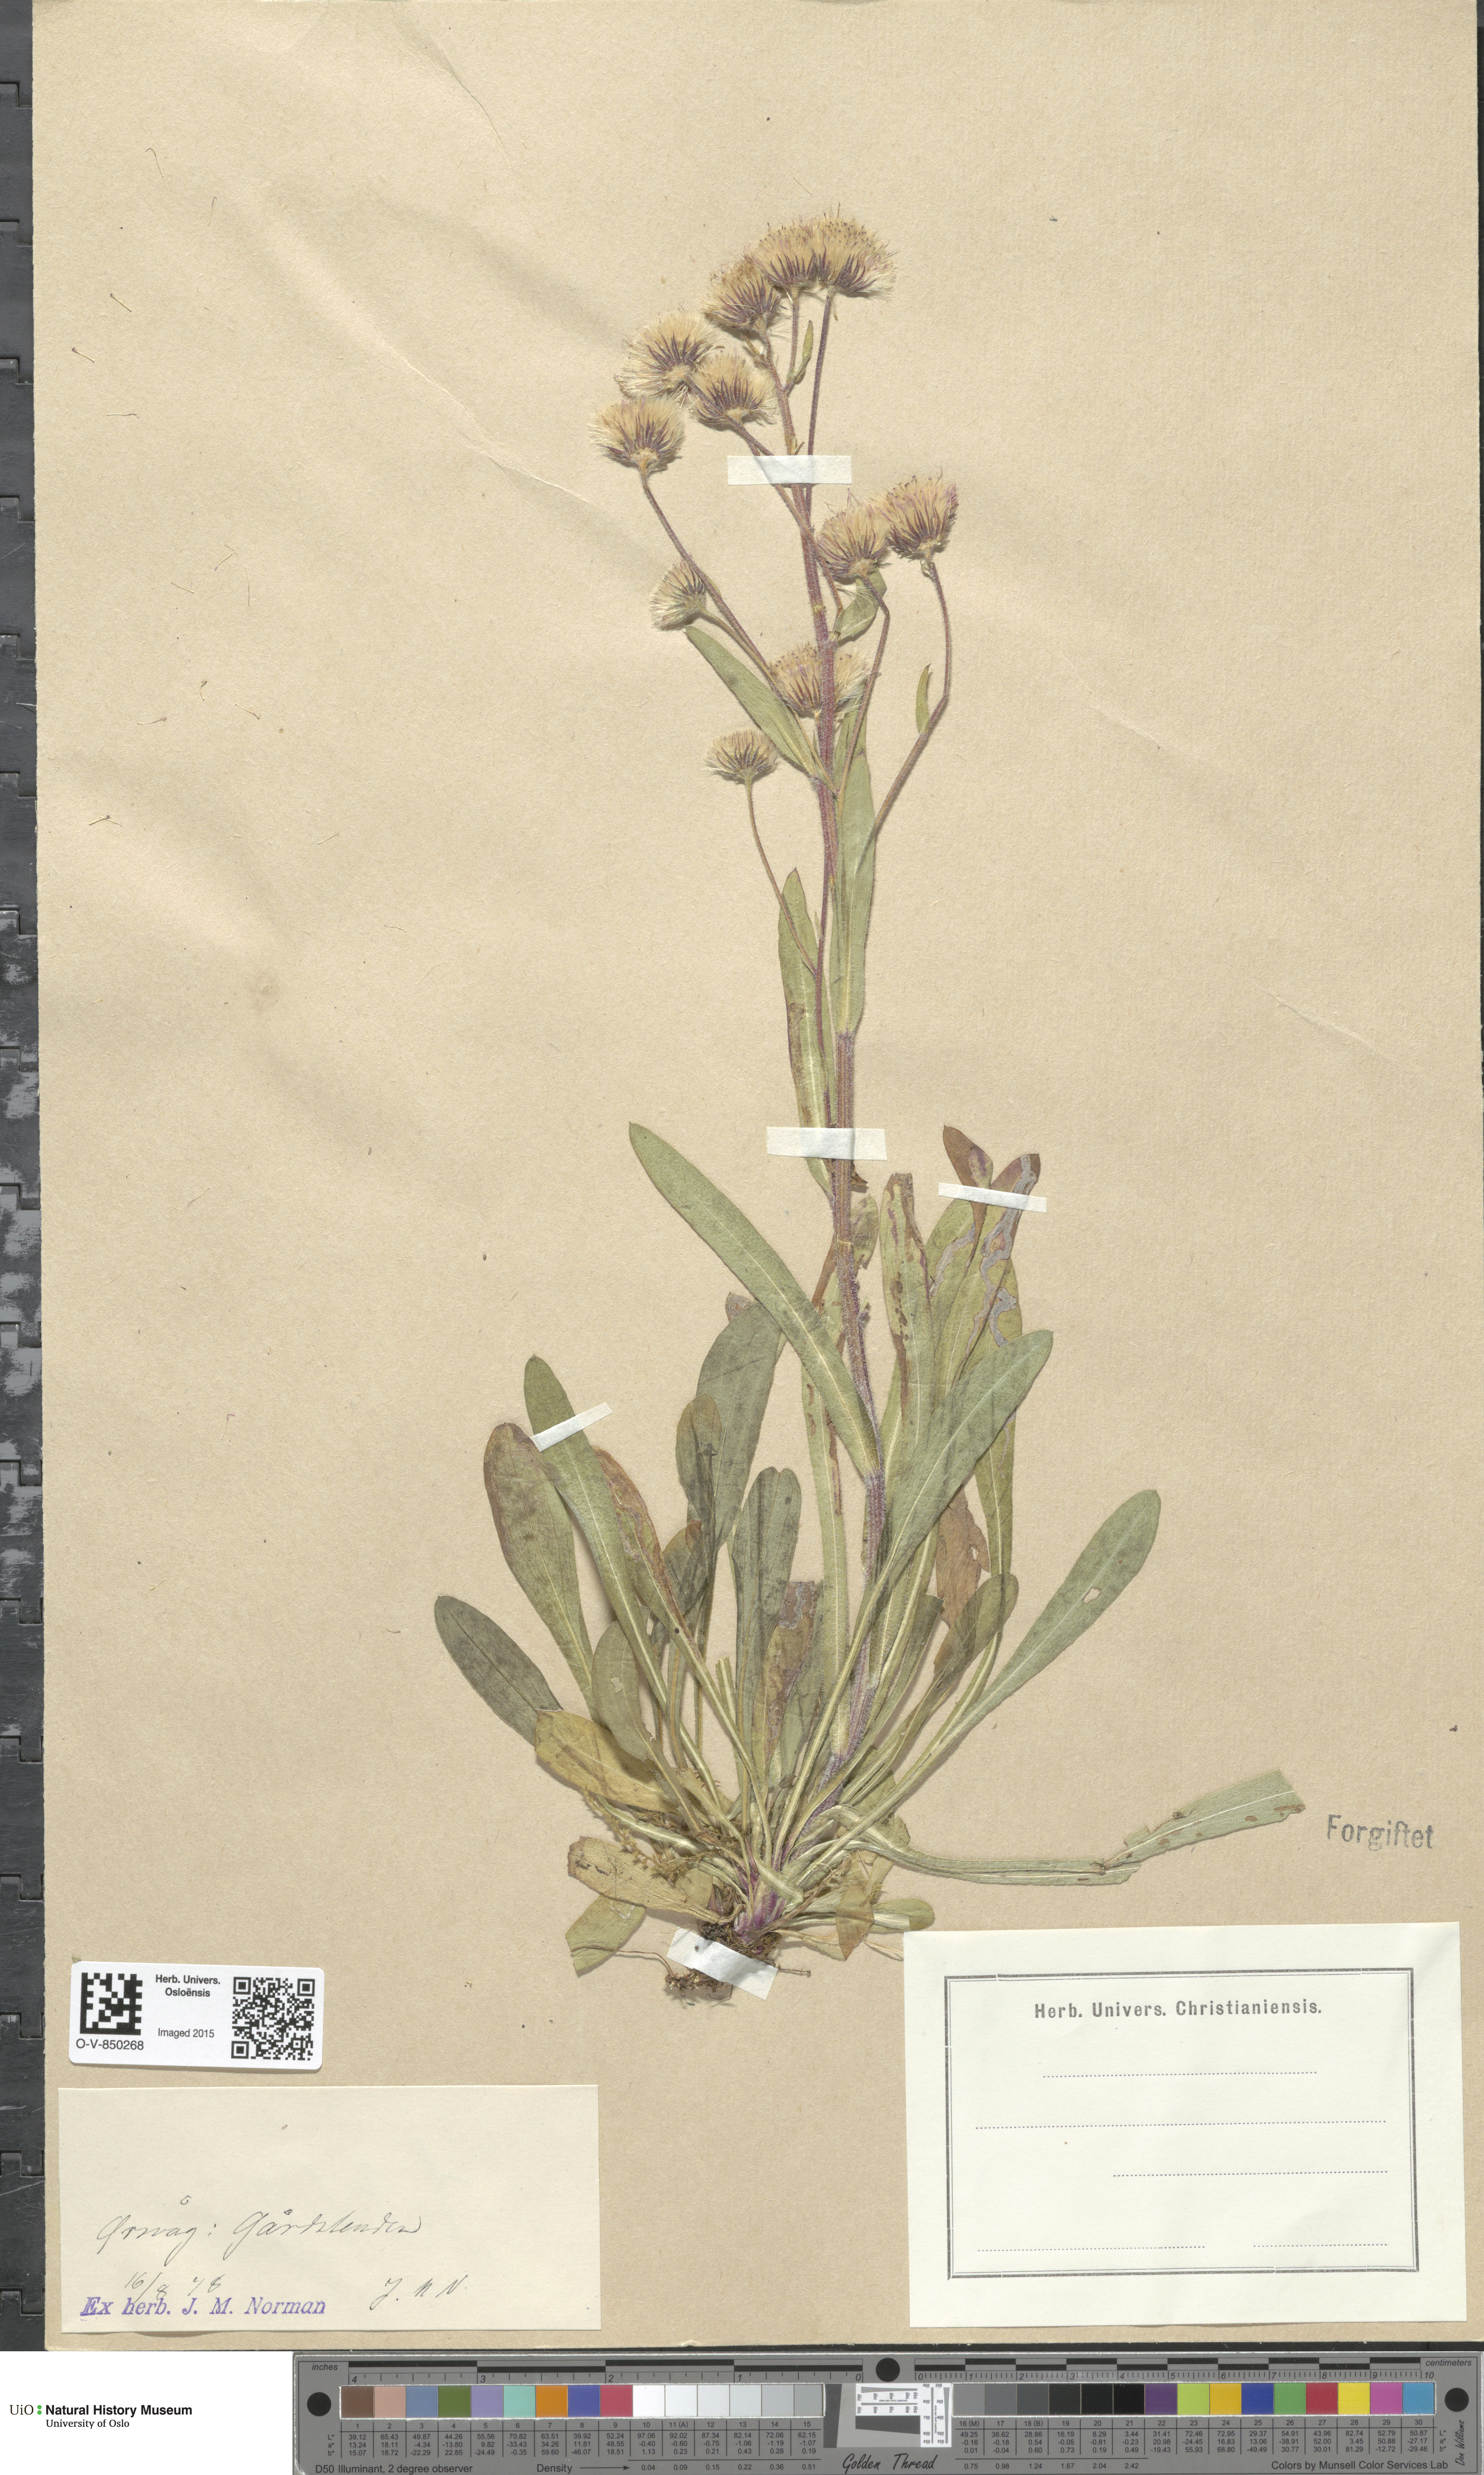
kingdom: Plantae
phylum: Tracheophyta
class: Magnoliopsida
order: Asterales
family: Asteraceae
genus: Erigeron
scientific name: Erigeron acris
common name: Blue fleabane
